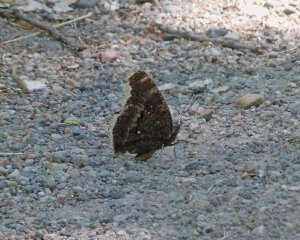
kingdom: Animalia
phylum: Arthropoda
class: Insecta
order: Lepidoptera
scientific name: Lepidoptera
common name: Butterflies
